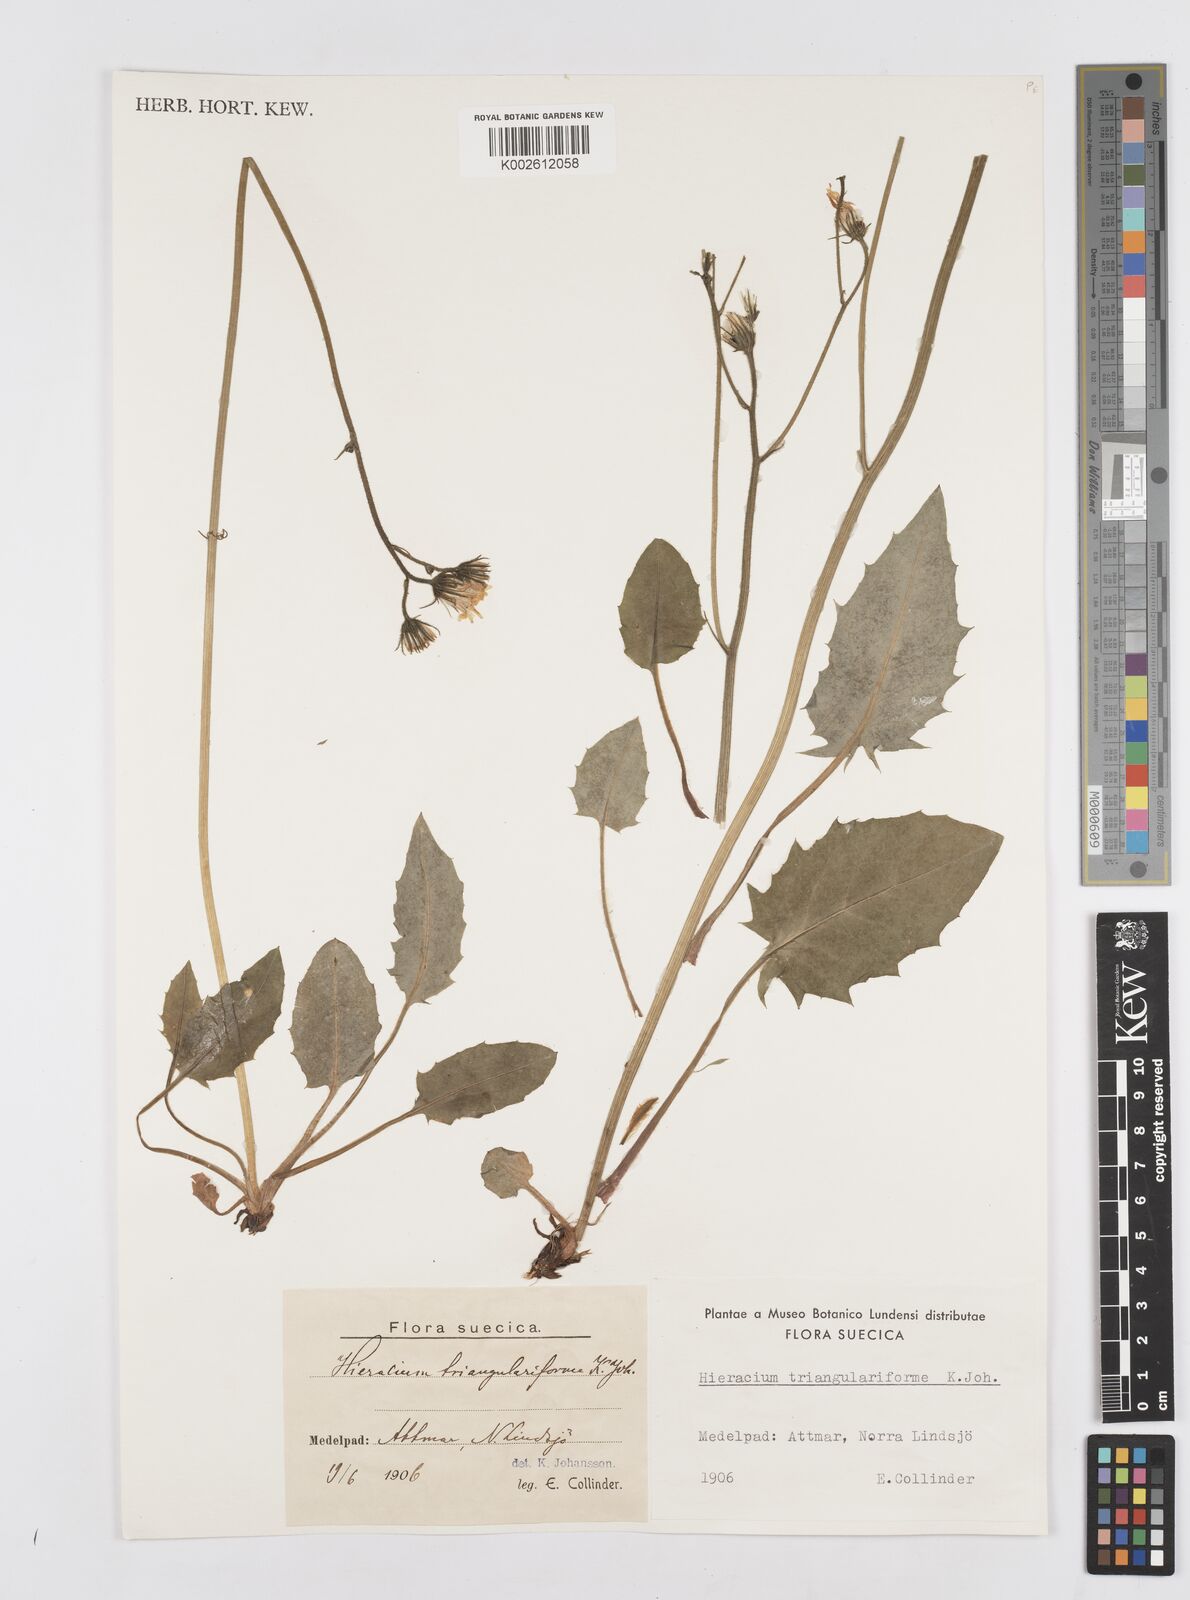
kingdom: Plantae
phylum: Tracheophyta
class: Magnoliopsida
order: Asterales
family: Asteraceae
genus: Hieracium
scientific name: Hieracium triangulariforme
